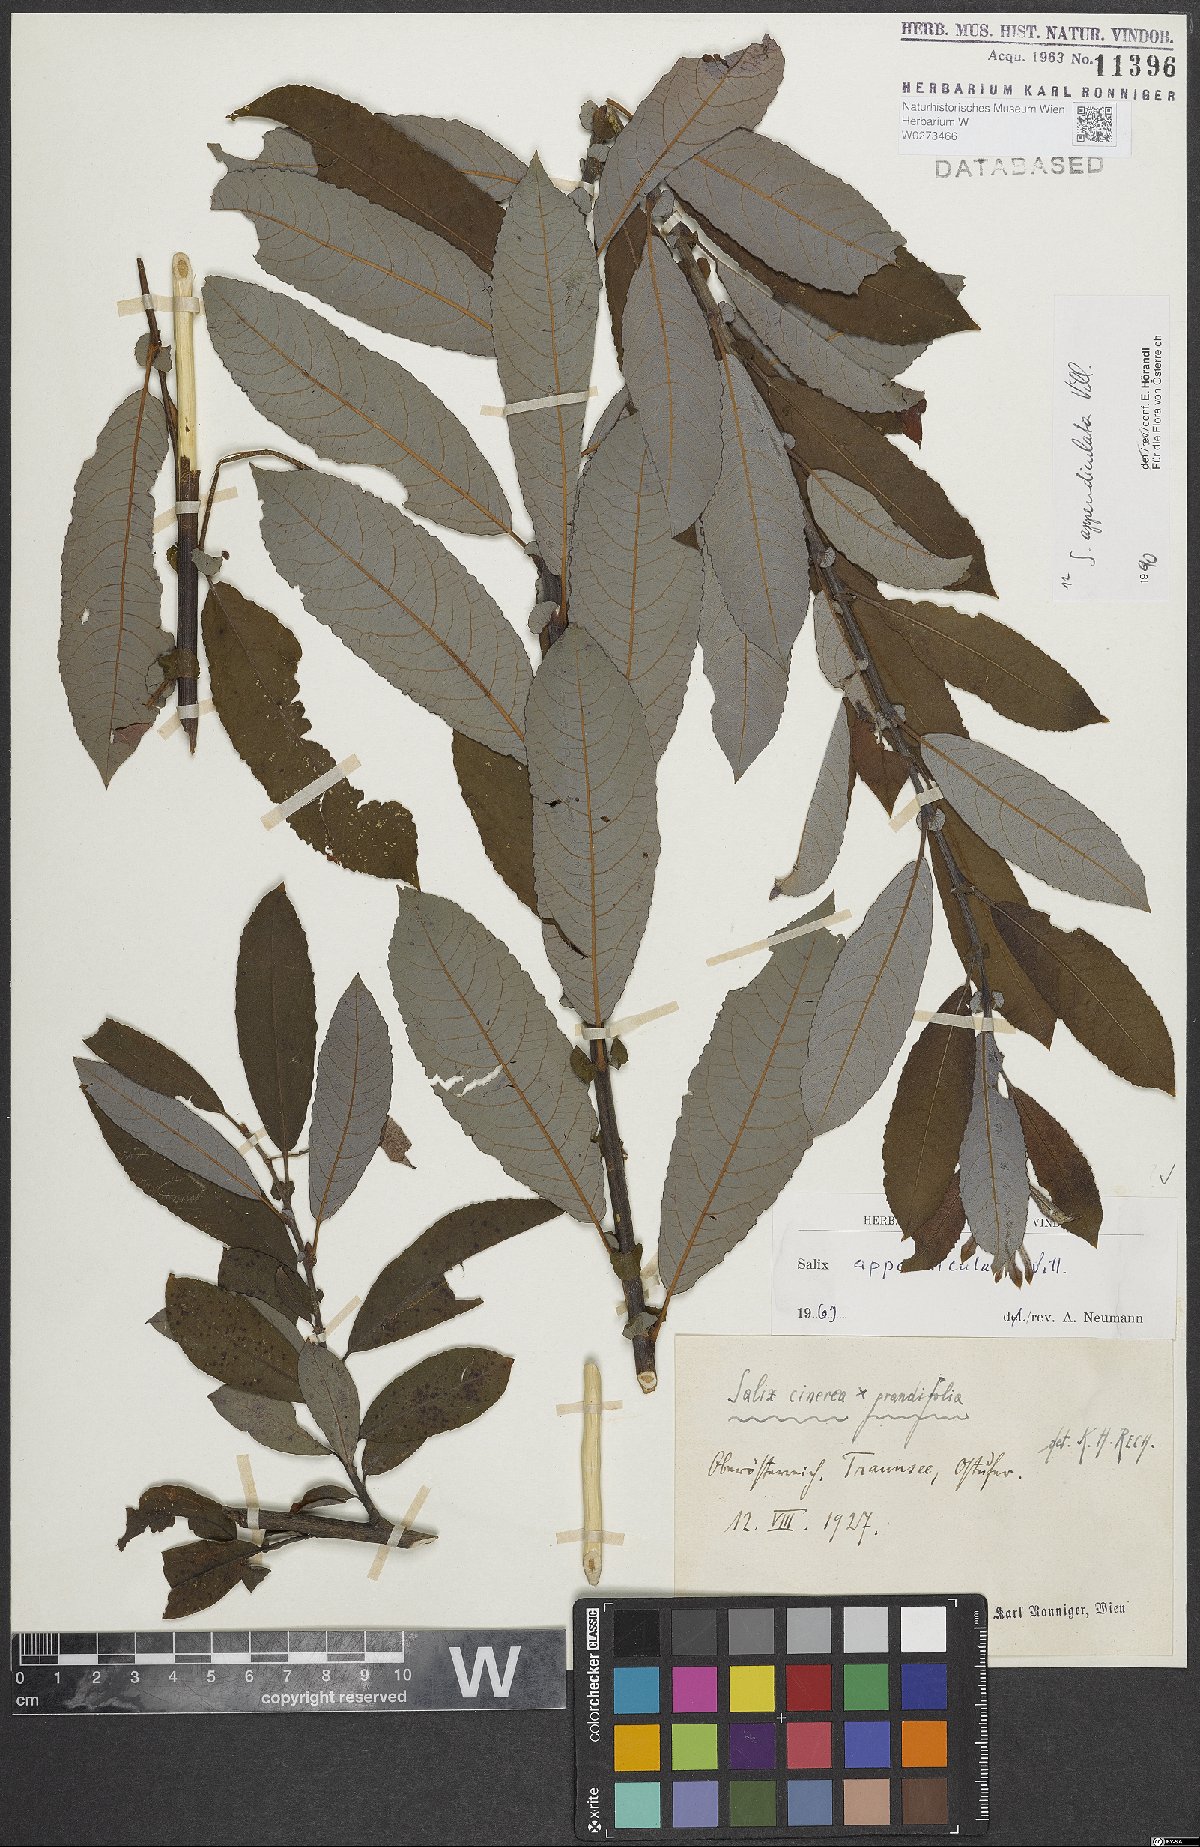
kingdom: Plantae
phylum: Tracheophyta
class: Magnoliopsida
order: Malpighiales
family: Salicaceae
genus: Salix
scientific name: Salix appendiculata
